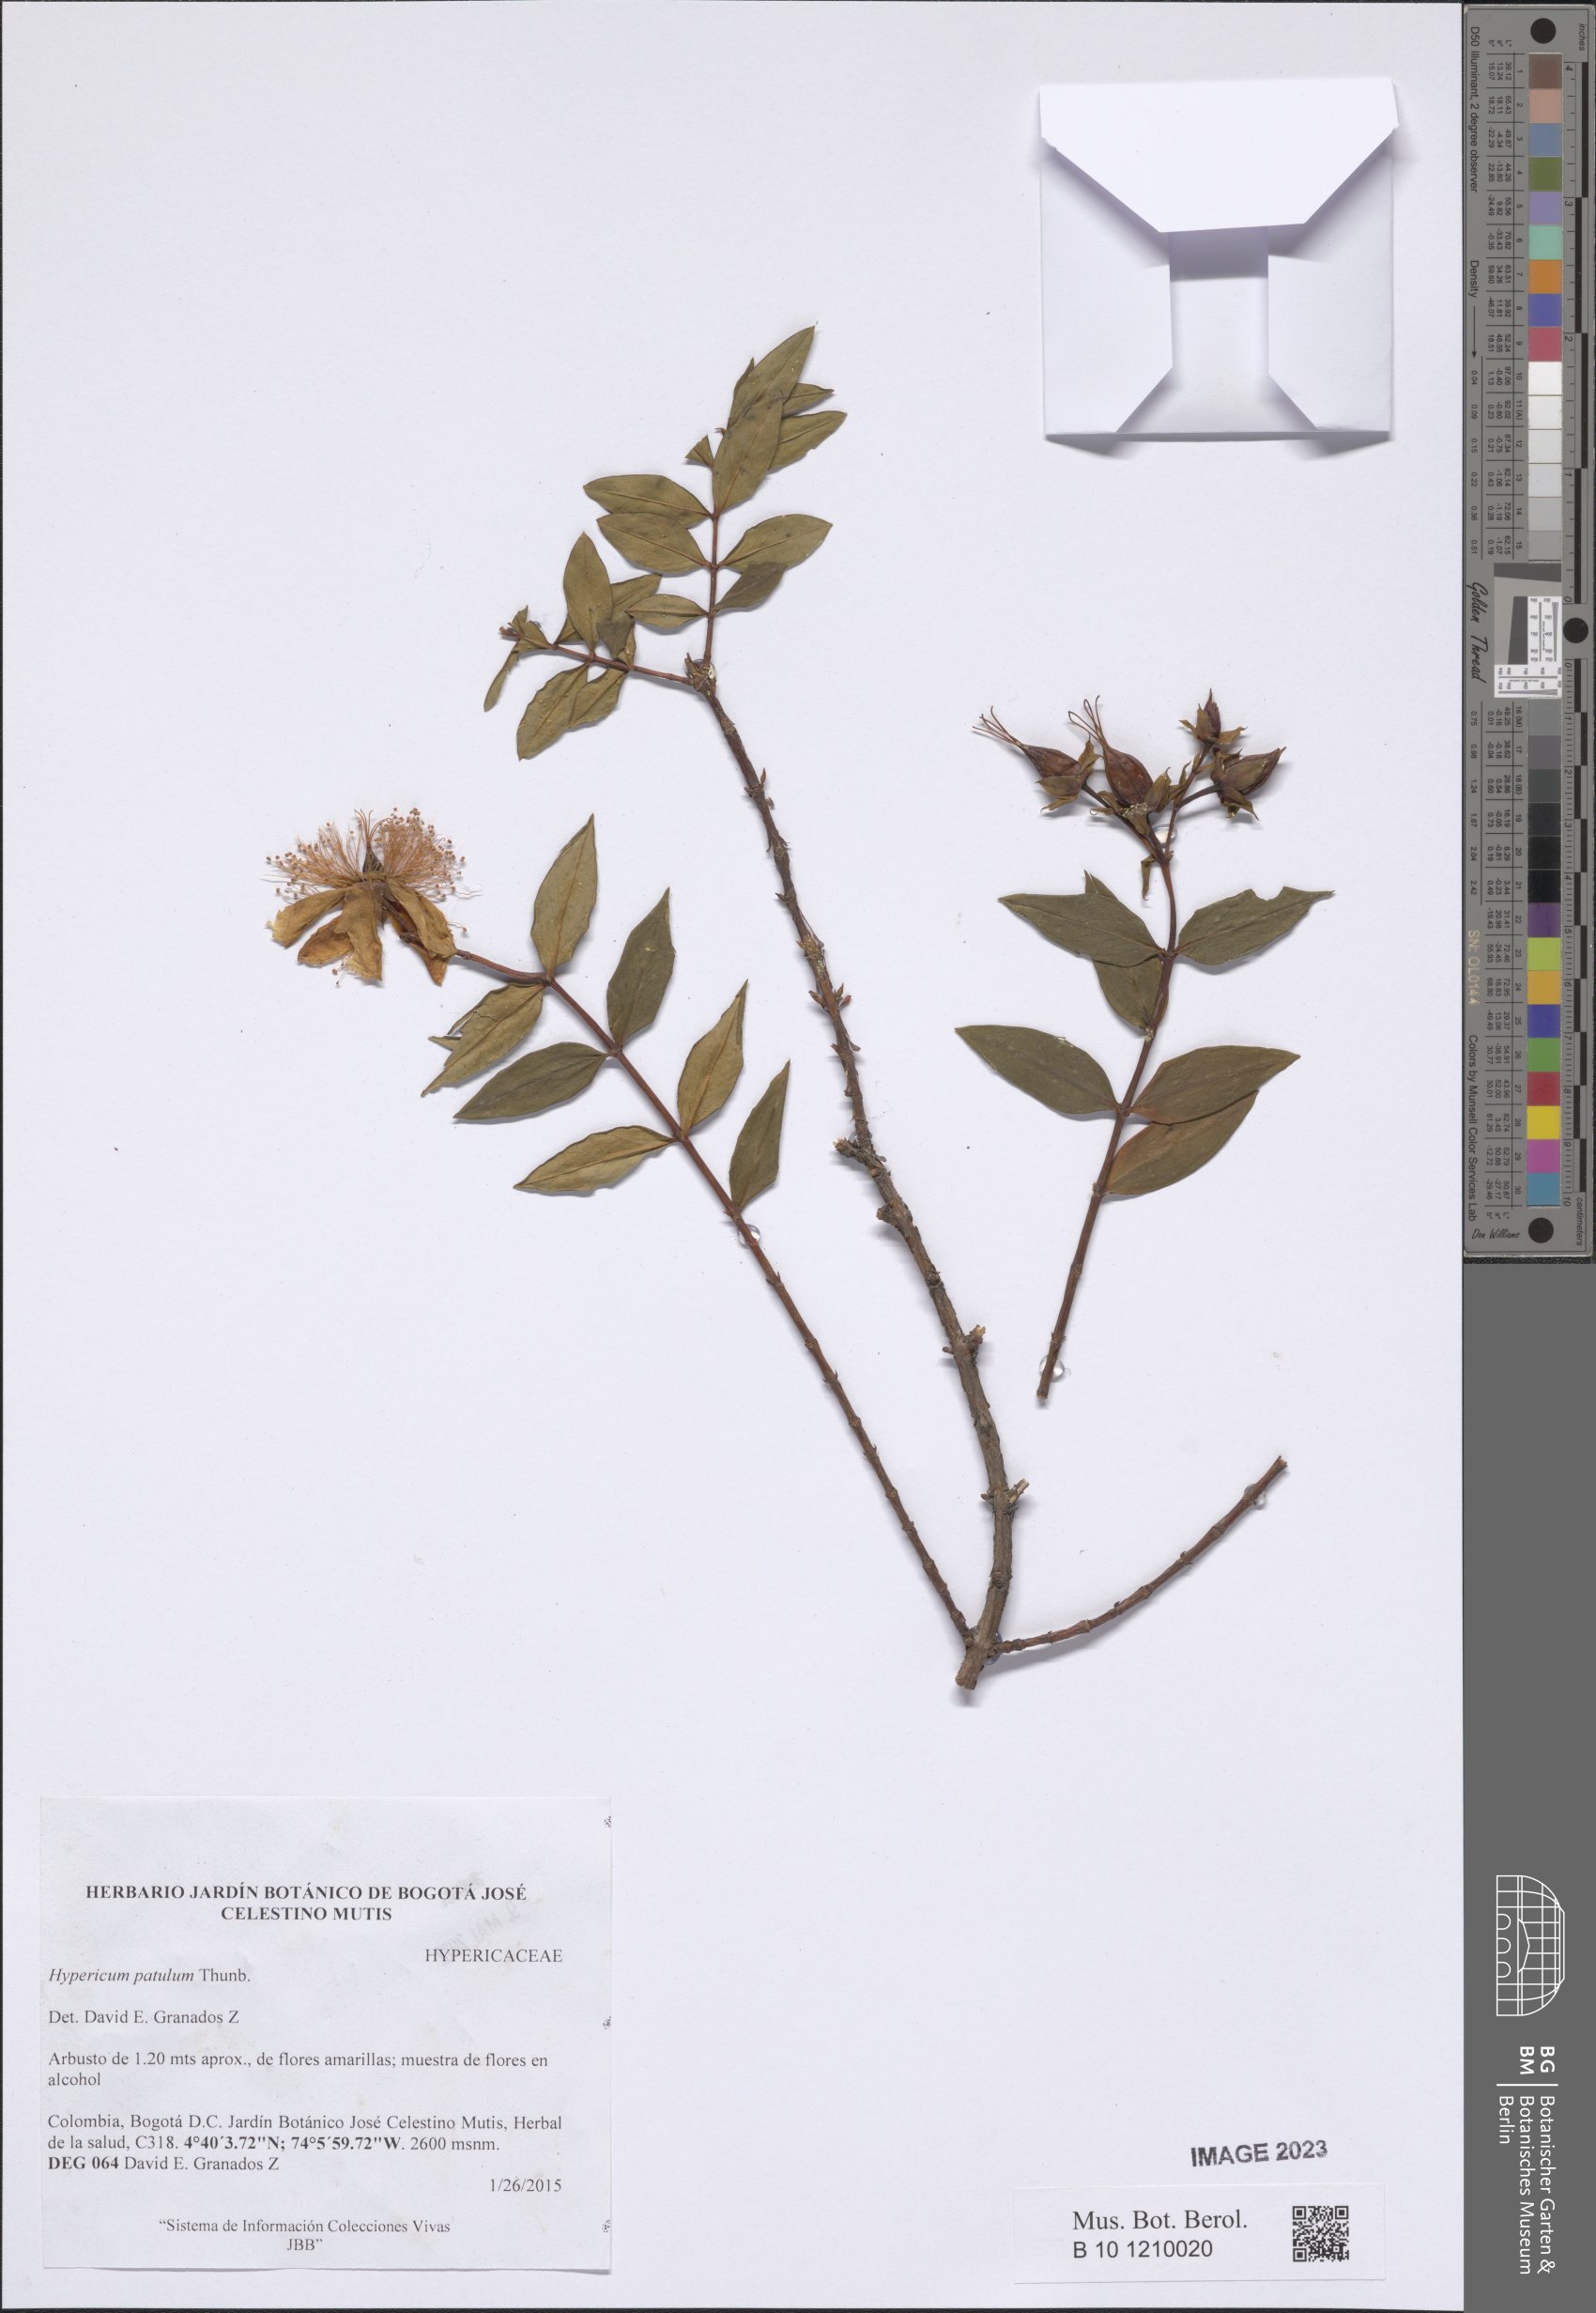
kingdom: Plantae
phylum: Tracheophyta
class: Magnoliopsida
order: Malpighiales
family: Hypericaceae
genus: Hypericum
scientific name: Hypericum patulum
